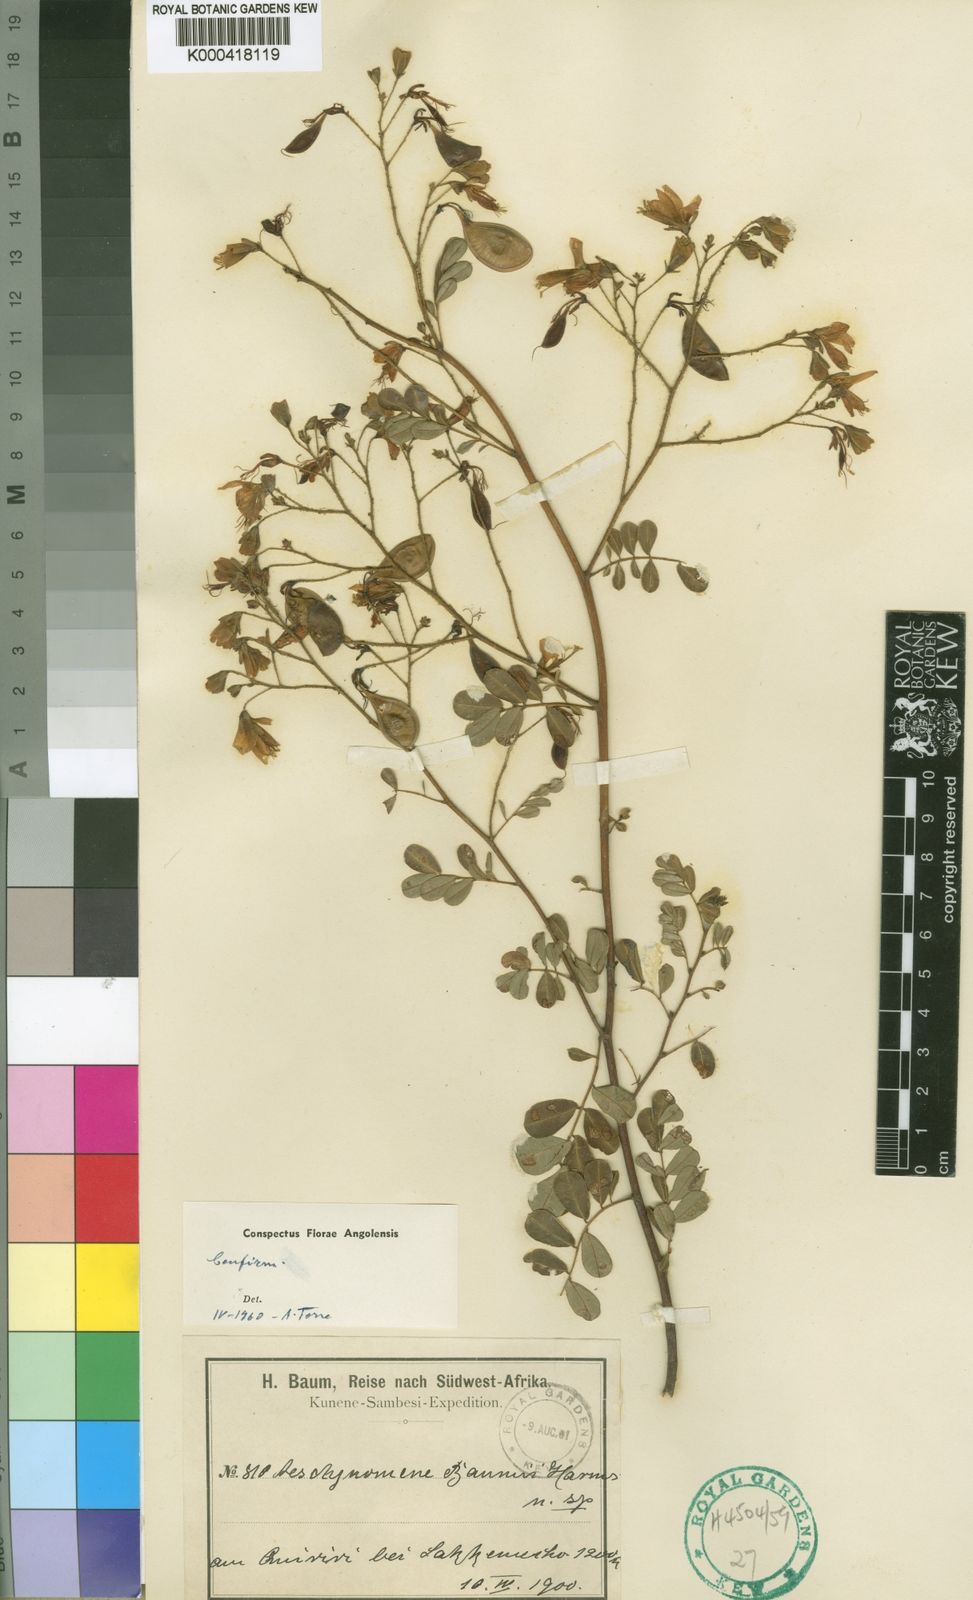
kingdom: Plantae
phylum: Tracheophyta
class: Magnoliopsida
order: Fabales
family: Fabaceae
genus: Aeschynomene
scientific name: Aeschynomene baumii
